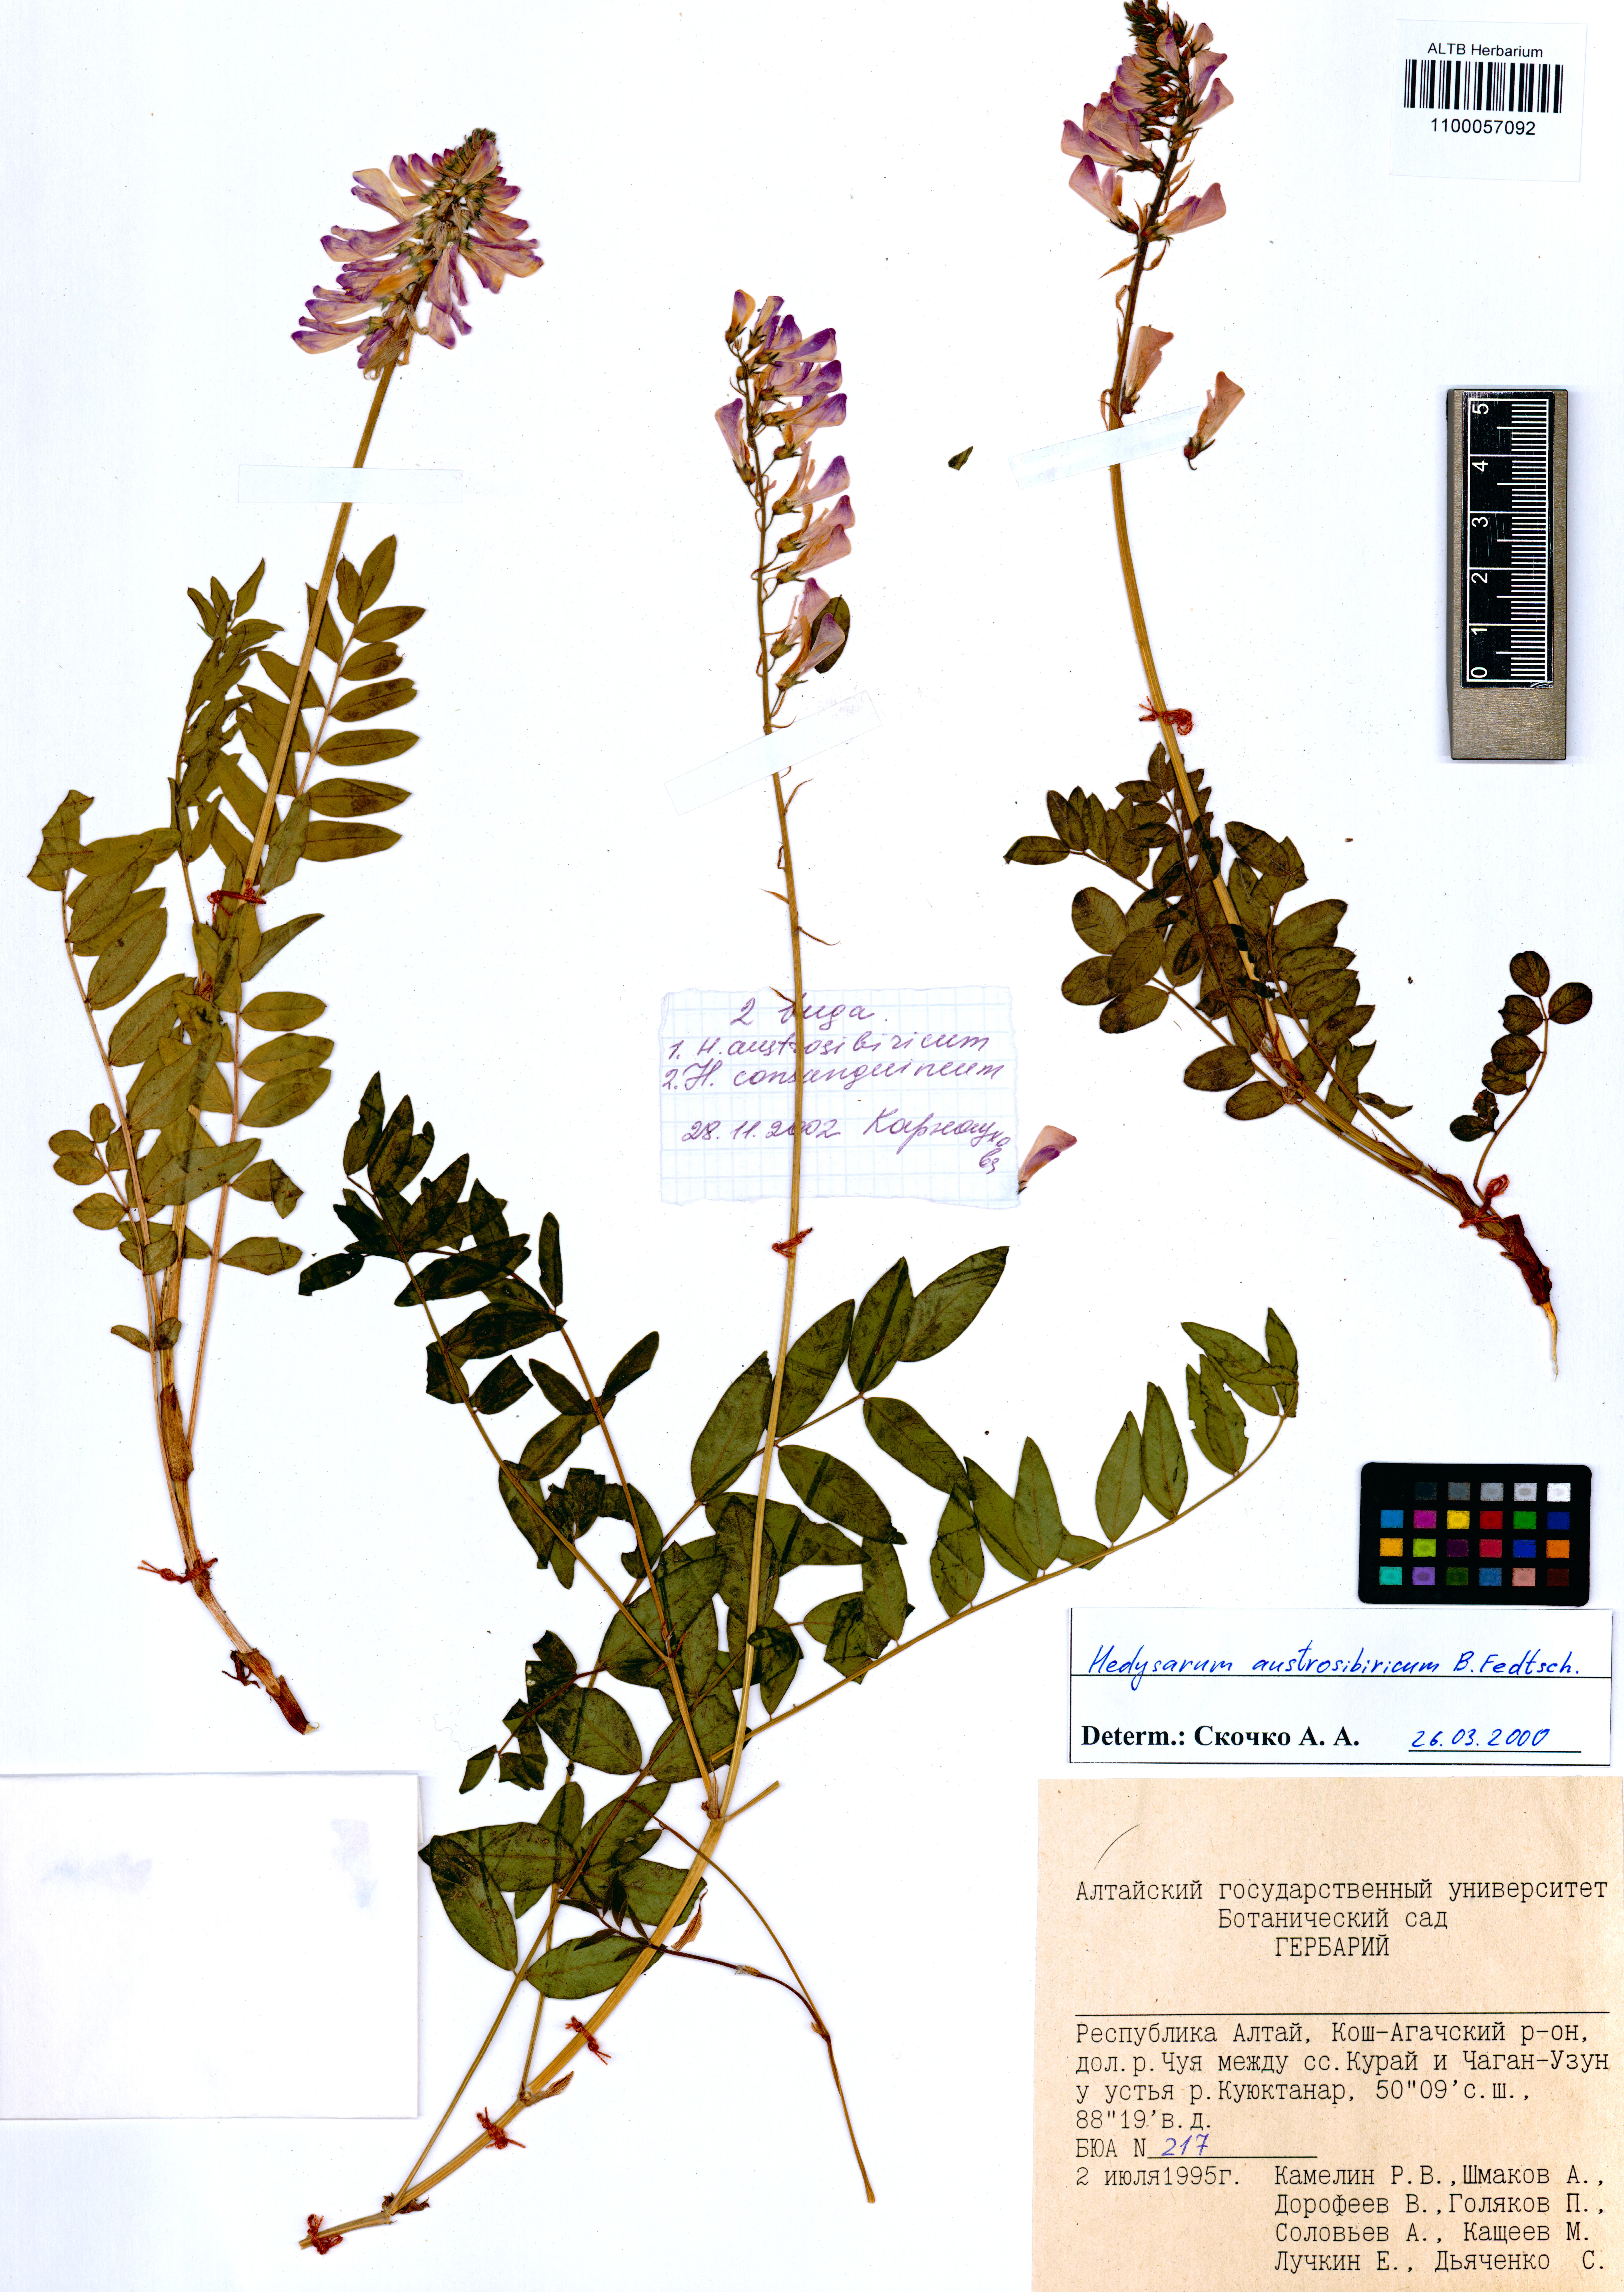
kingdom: Plantae
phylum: Tracheophyta
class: Magnoliopsida
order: Fabales
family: Fabaceae
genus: Hedysarum
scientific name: Hedysarum consanguineum
